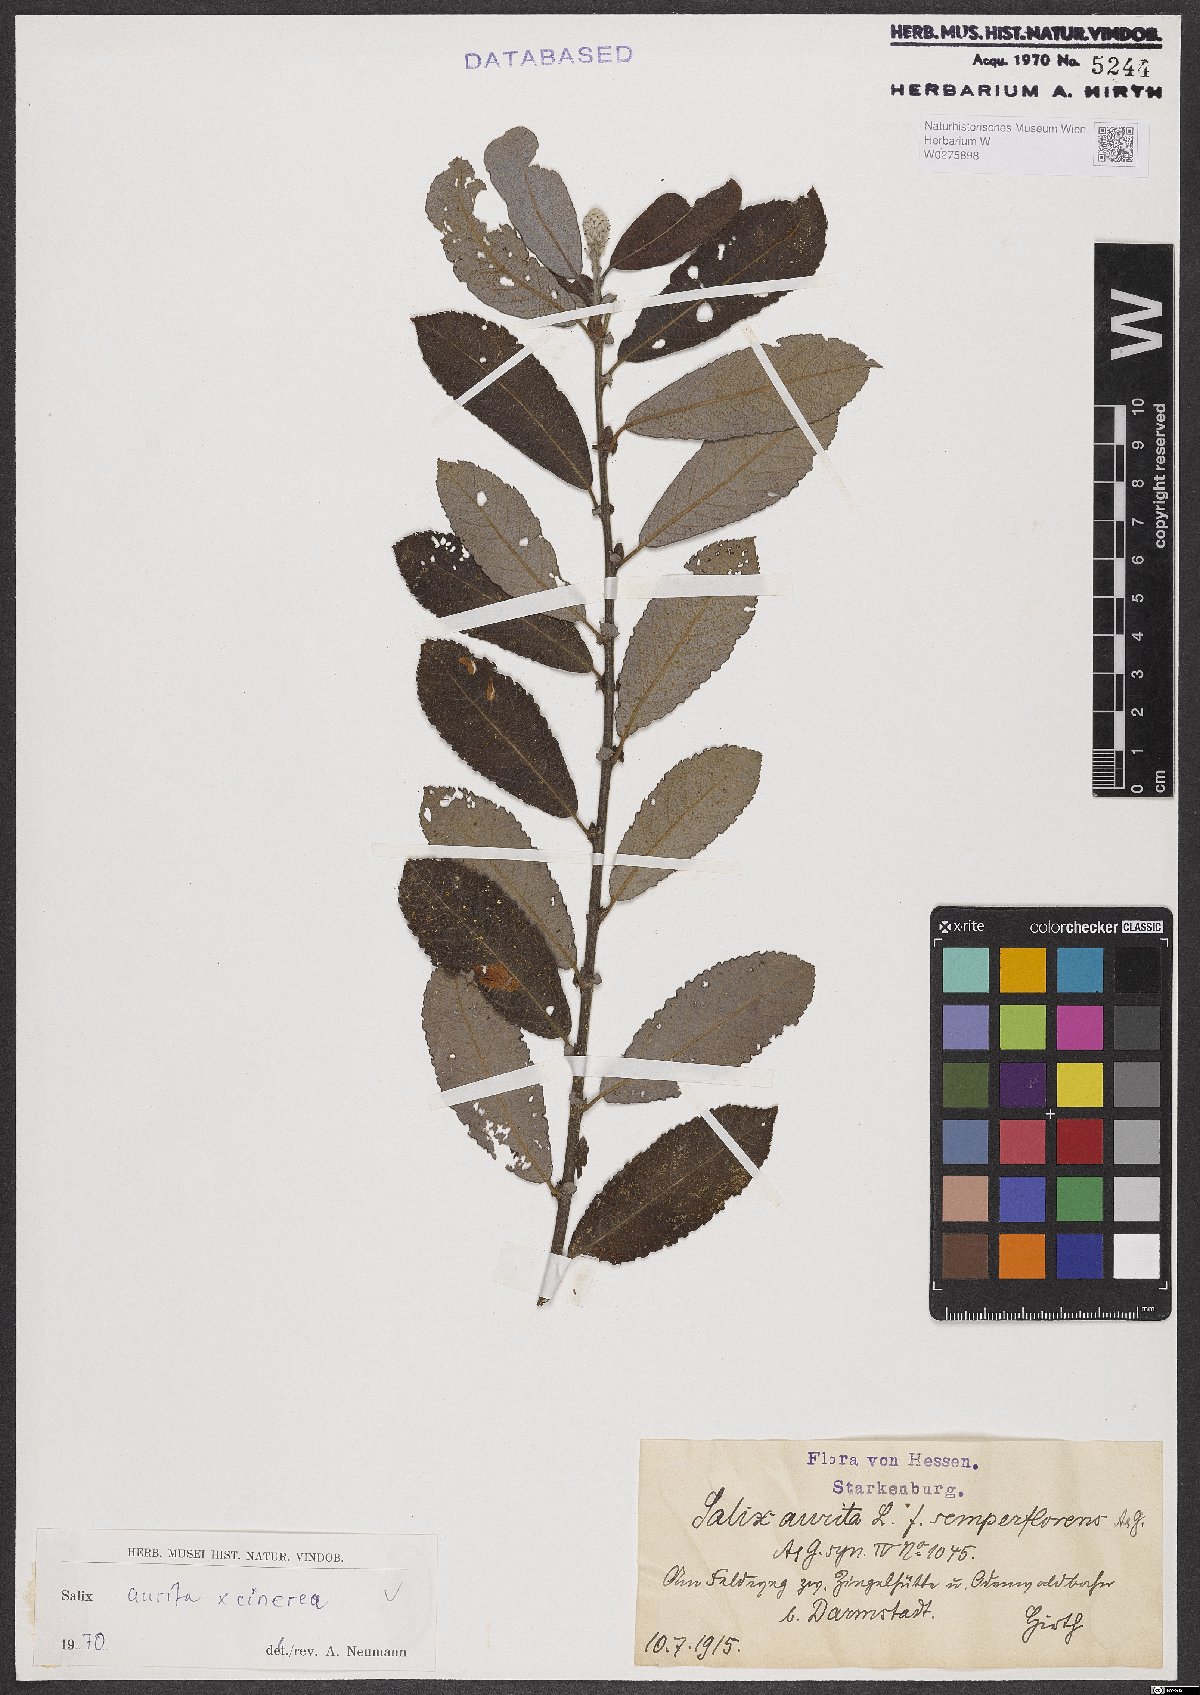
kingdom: Plantae
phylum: Tracheophyta
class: Magnoliopsida
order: Malpighiales
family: Salicaceae
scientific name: Salicaceae
